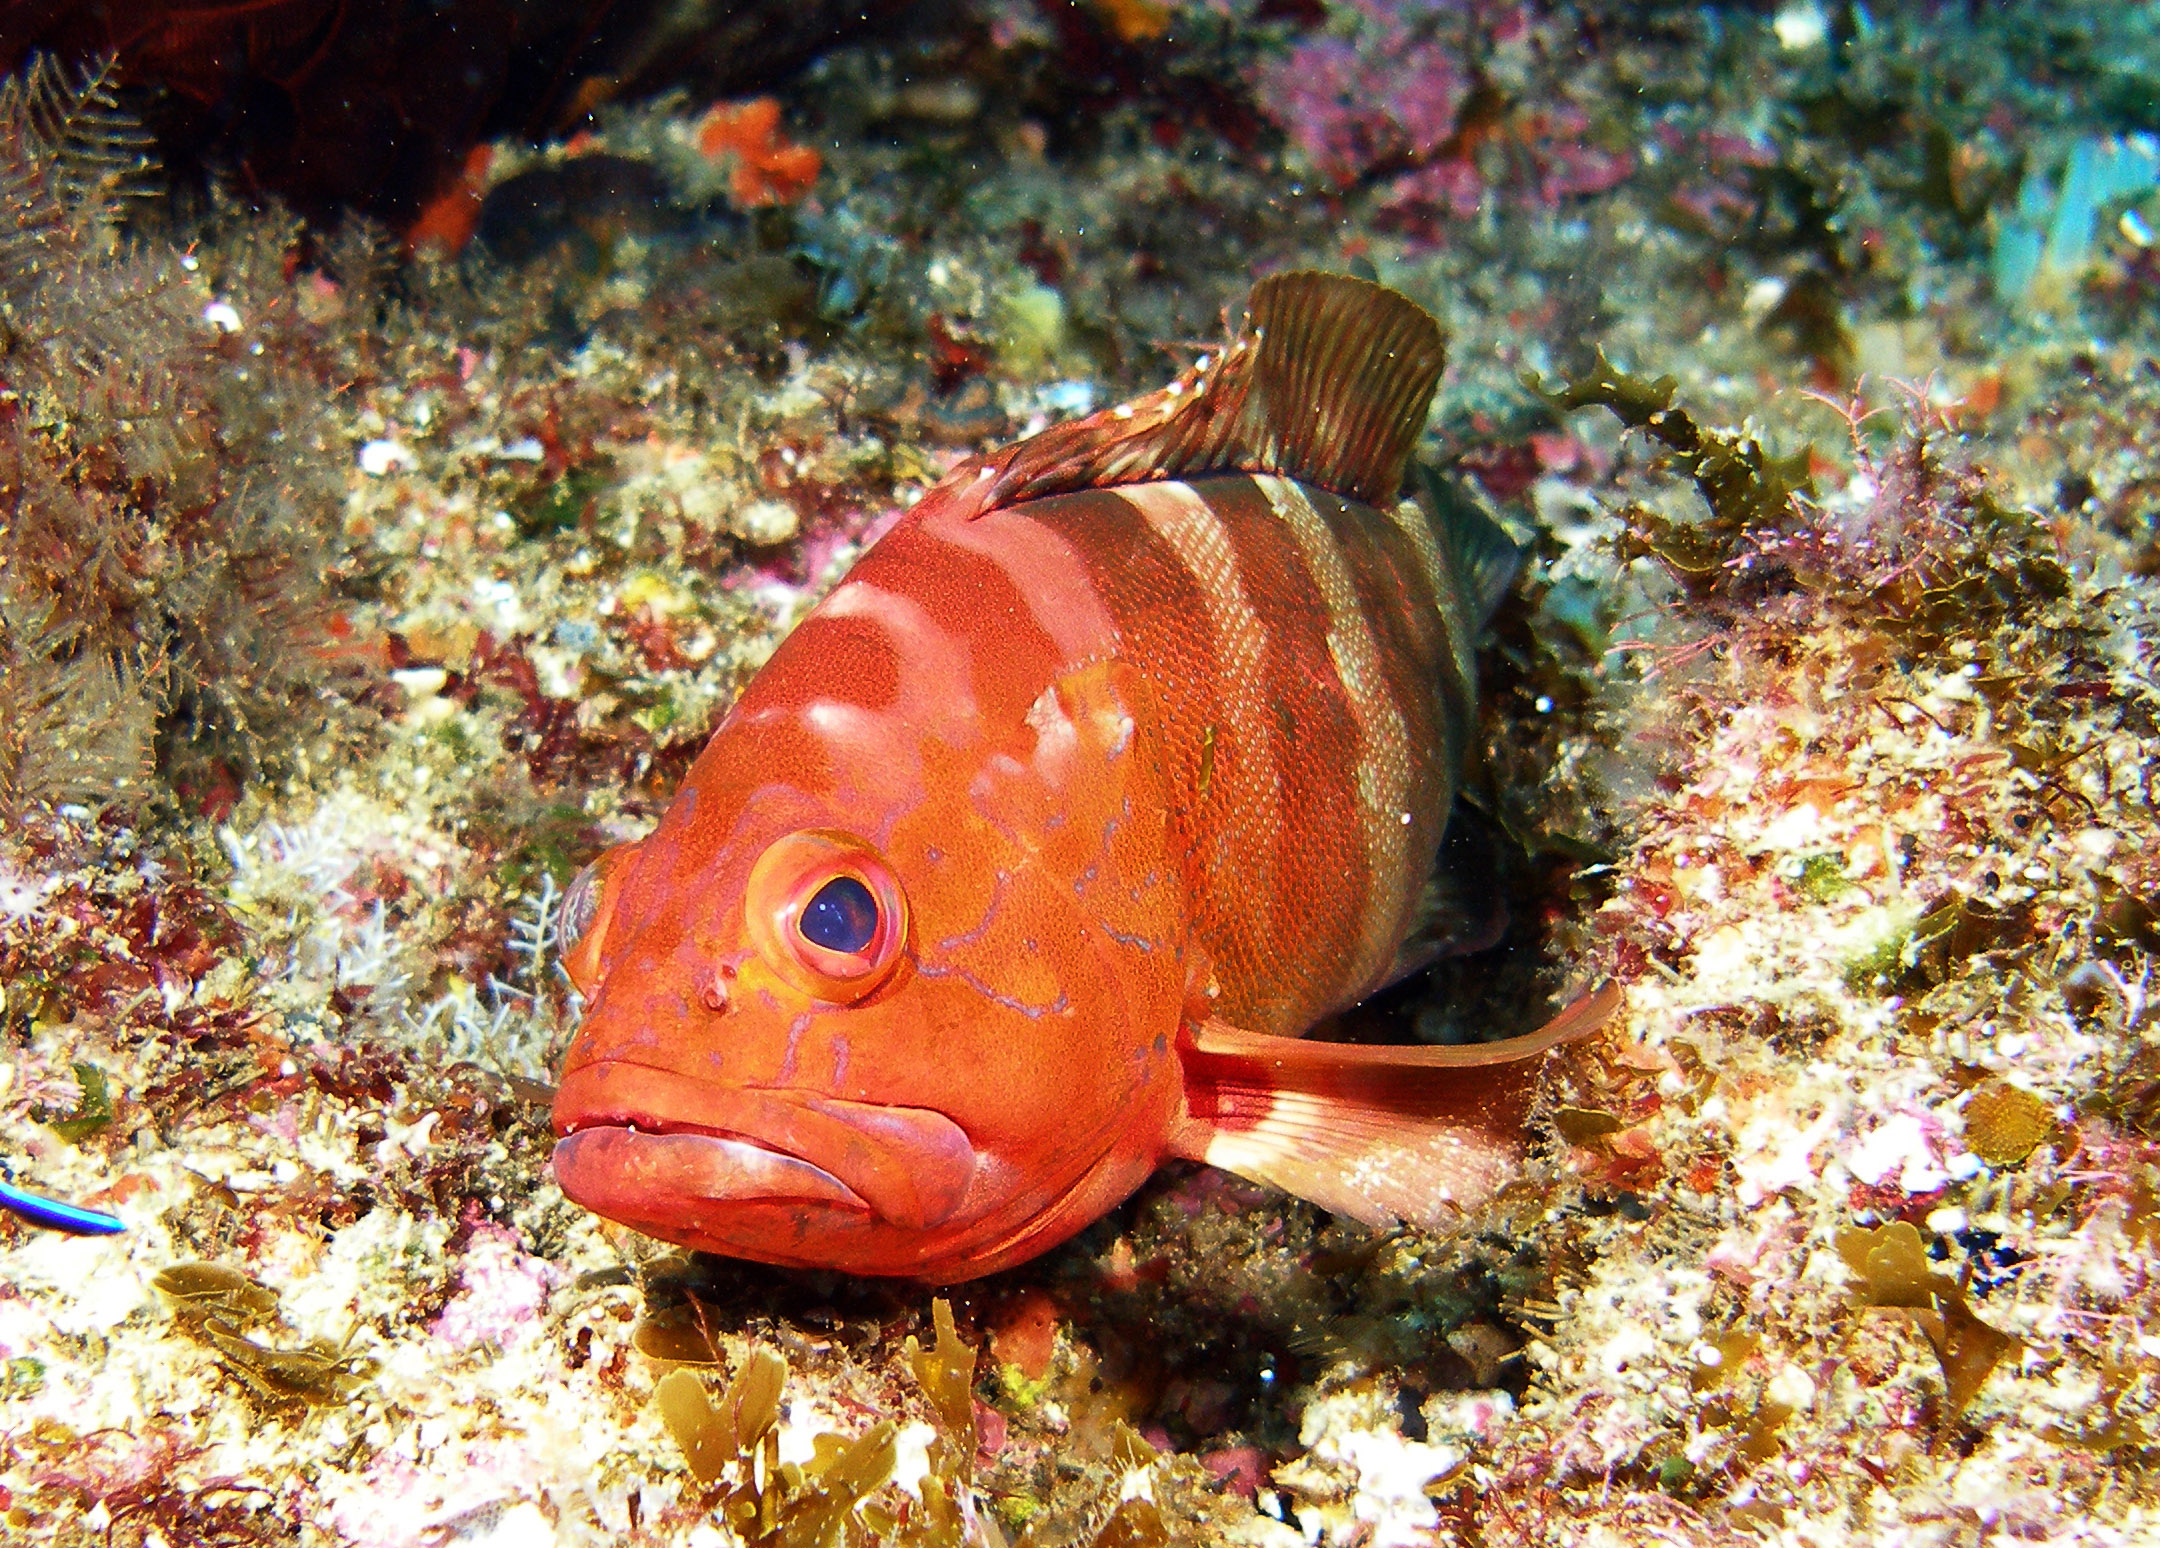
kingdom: Animalia
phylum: Chordata
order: Perciformes
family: Serranidae
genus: Epinephelus
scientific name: Epinephelus rivulatus
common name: Halfmoon grouper
